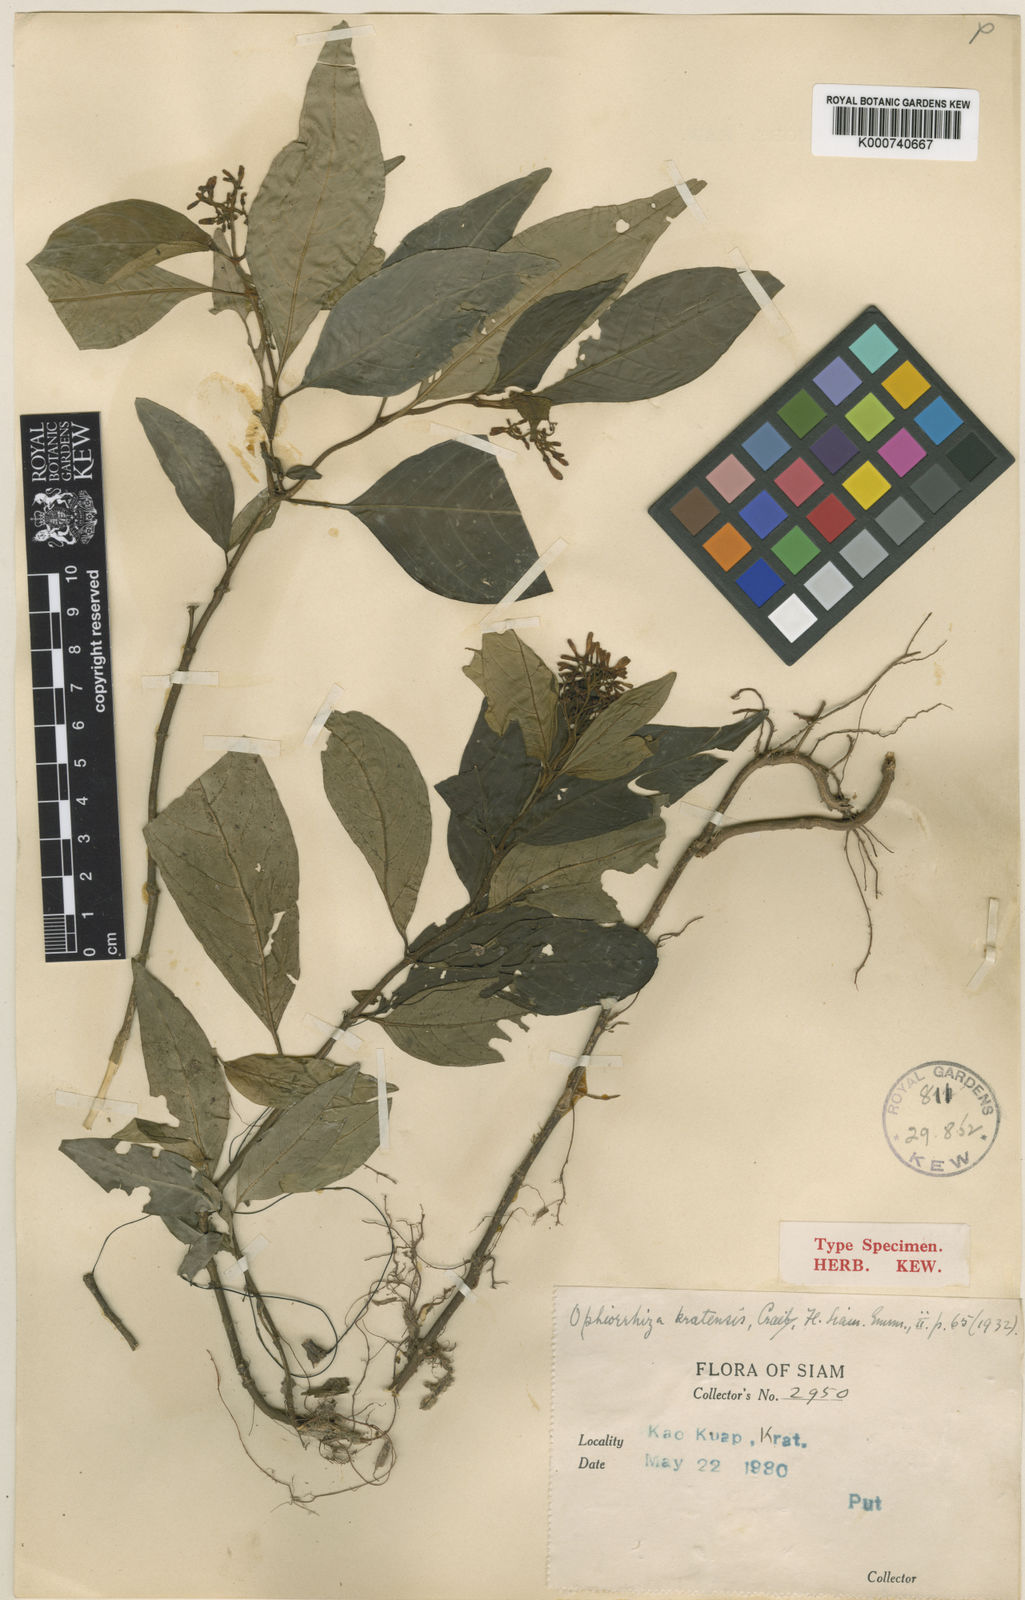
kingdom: Plantae
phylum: Tracheophyta
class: Magnoliopsida
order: Gentianales
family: Rubiaceae
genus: Ophiorrhiza
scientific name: Ophiorrhiza brachycarpa
